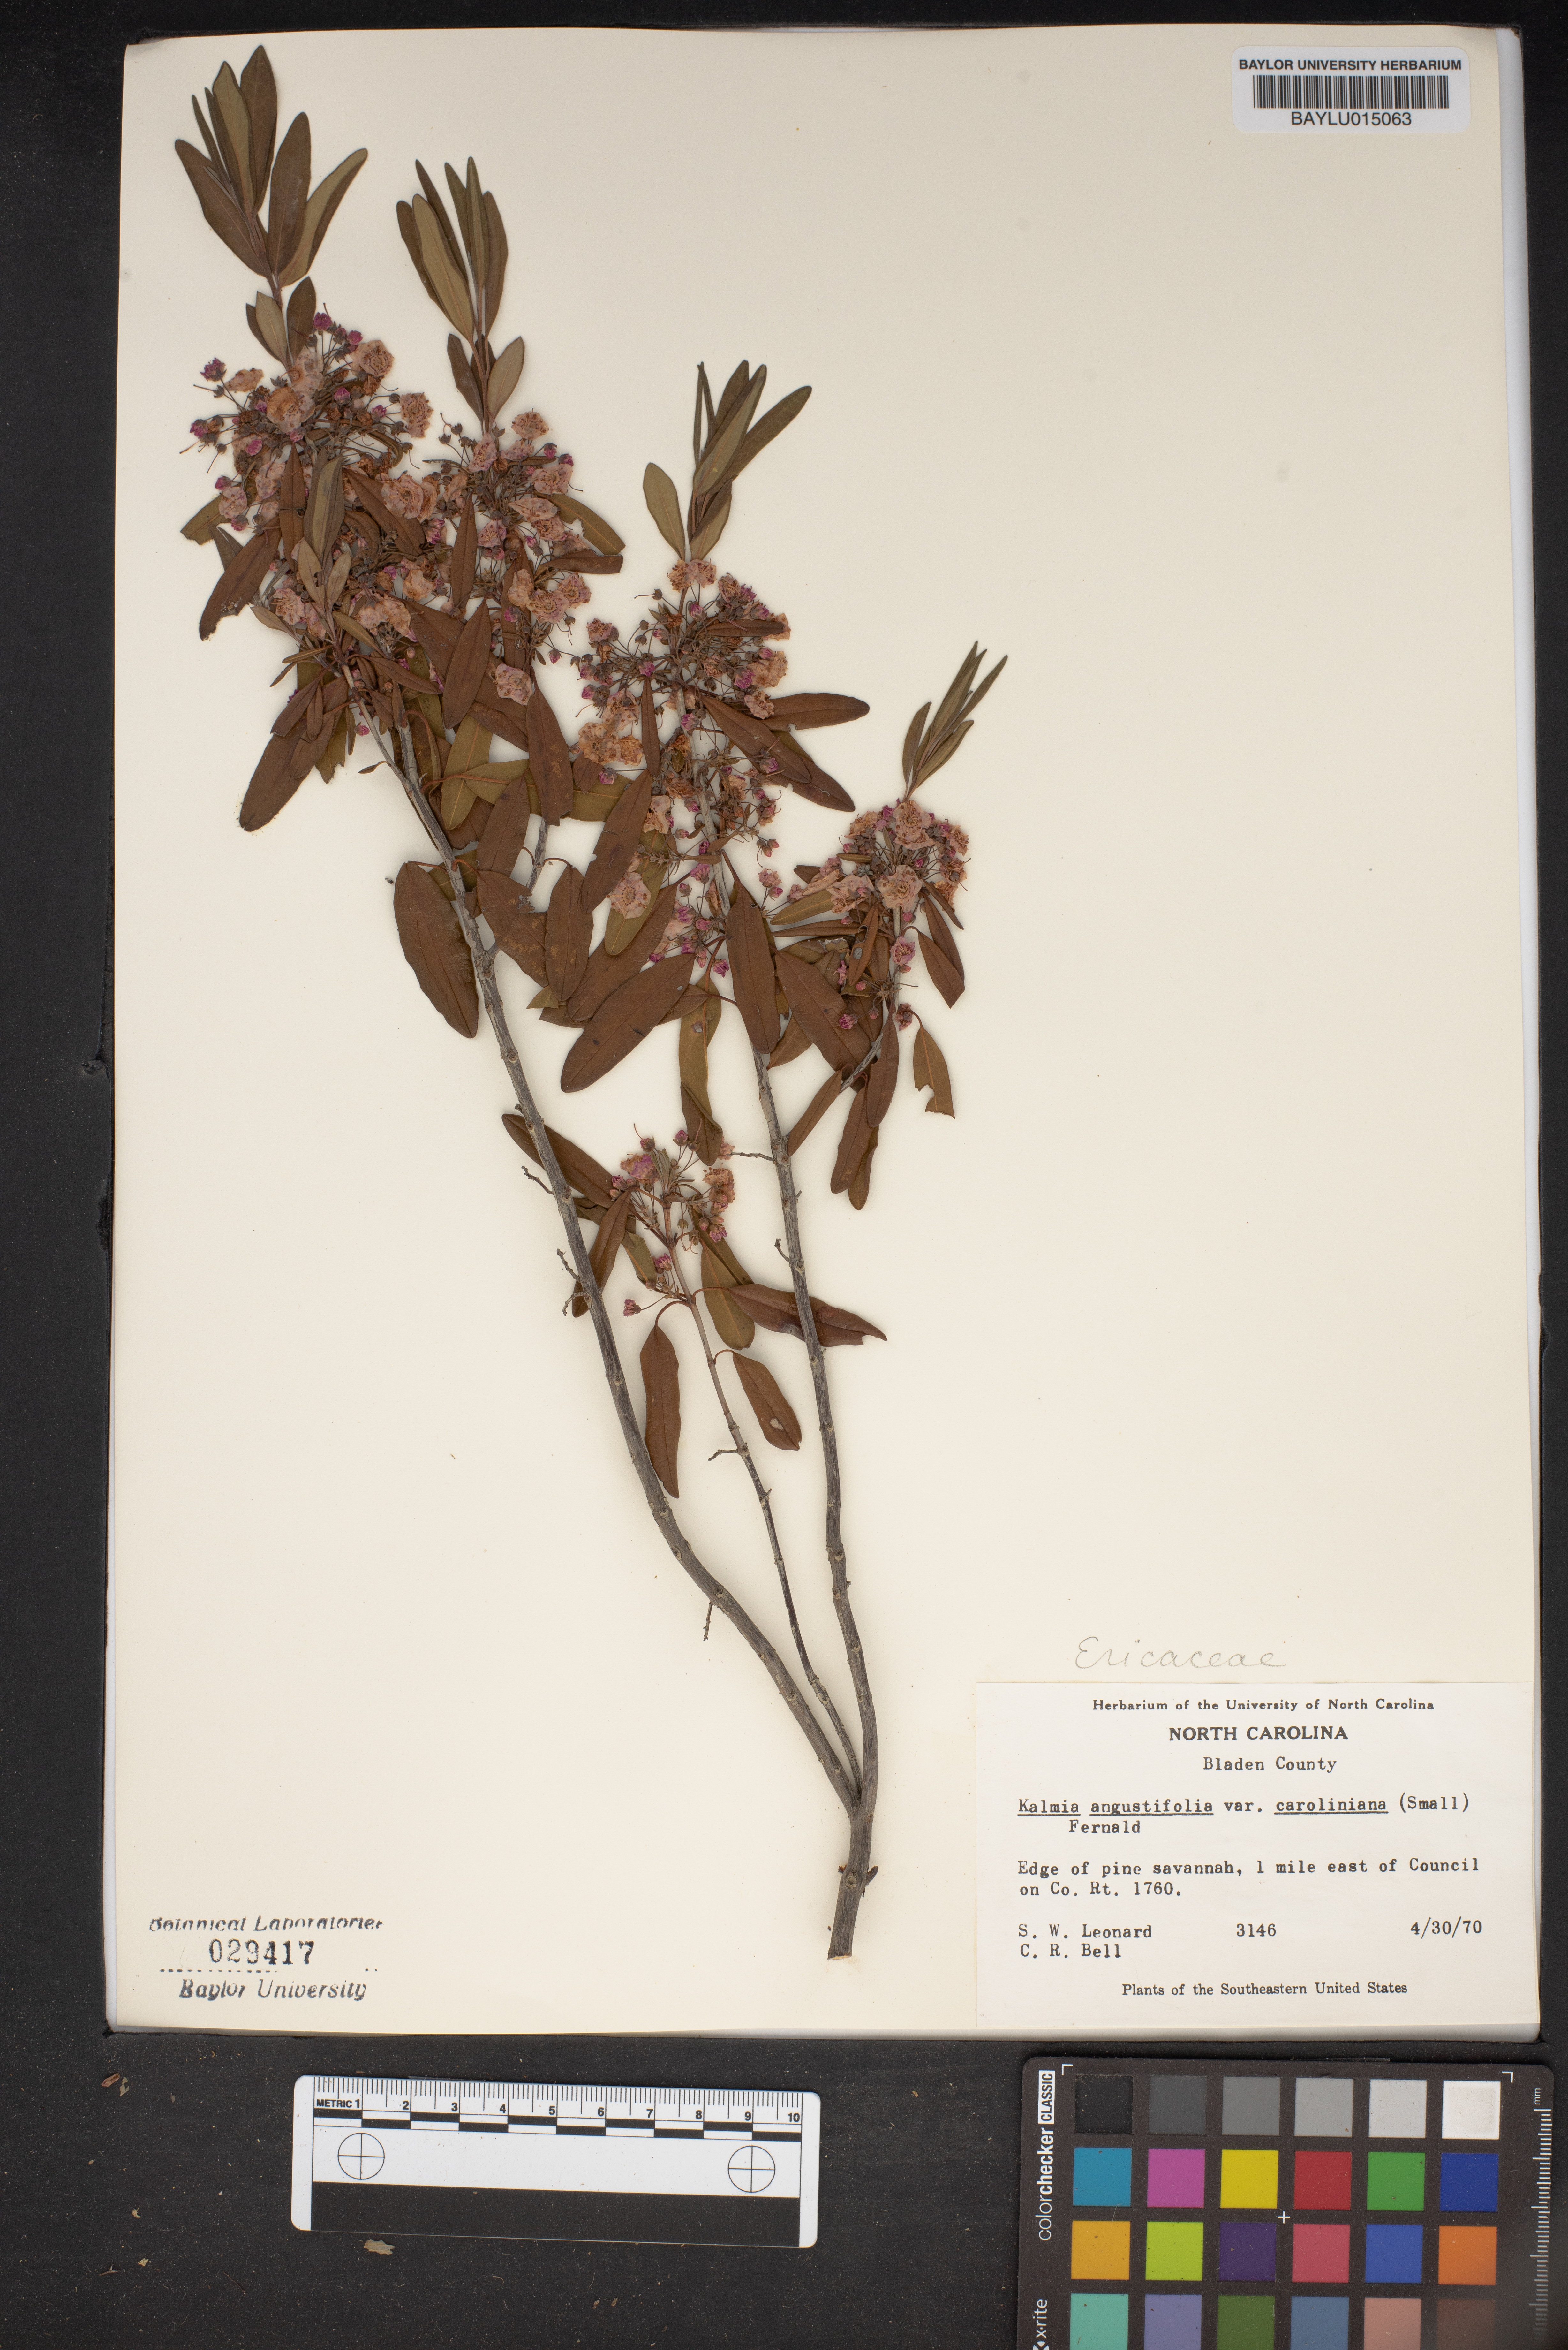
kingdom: Plantae
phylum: Tracheophyta
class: Magnoliopsida
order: Ericales
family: Ericaceae
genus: Kalmia
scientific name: Kalmia angustifolia
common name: Sheep-laurel
